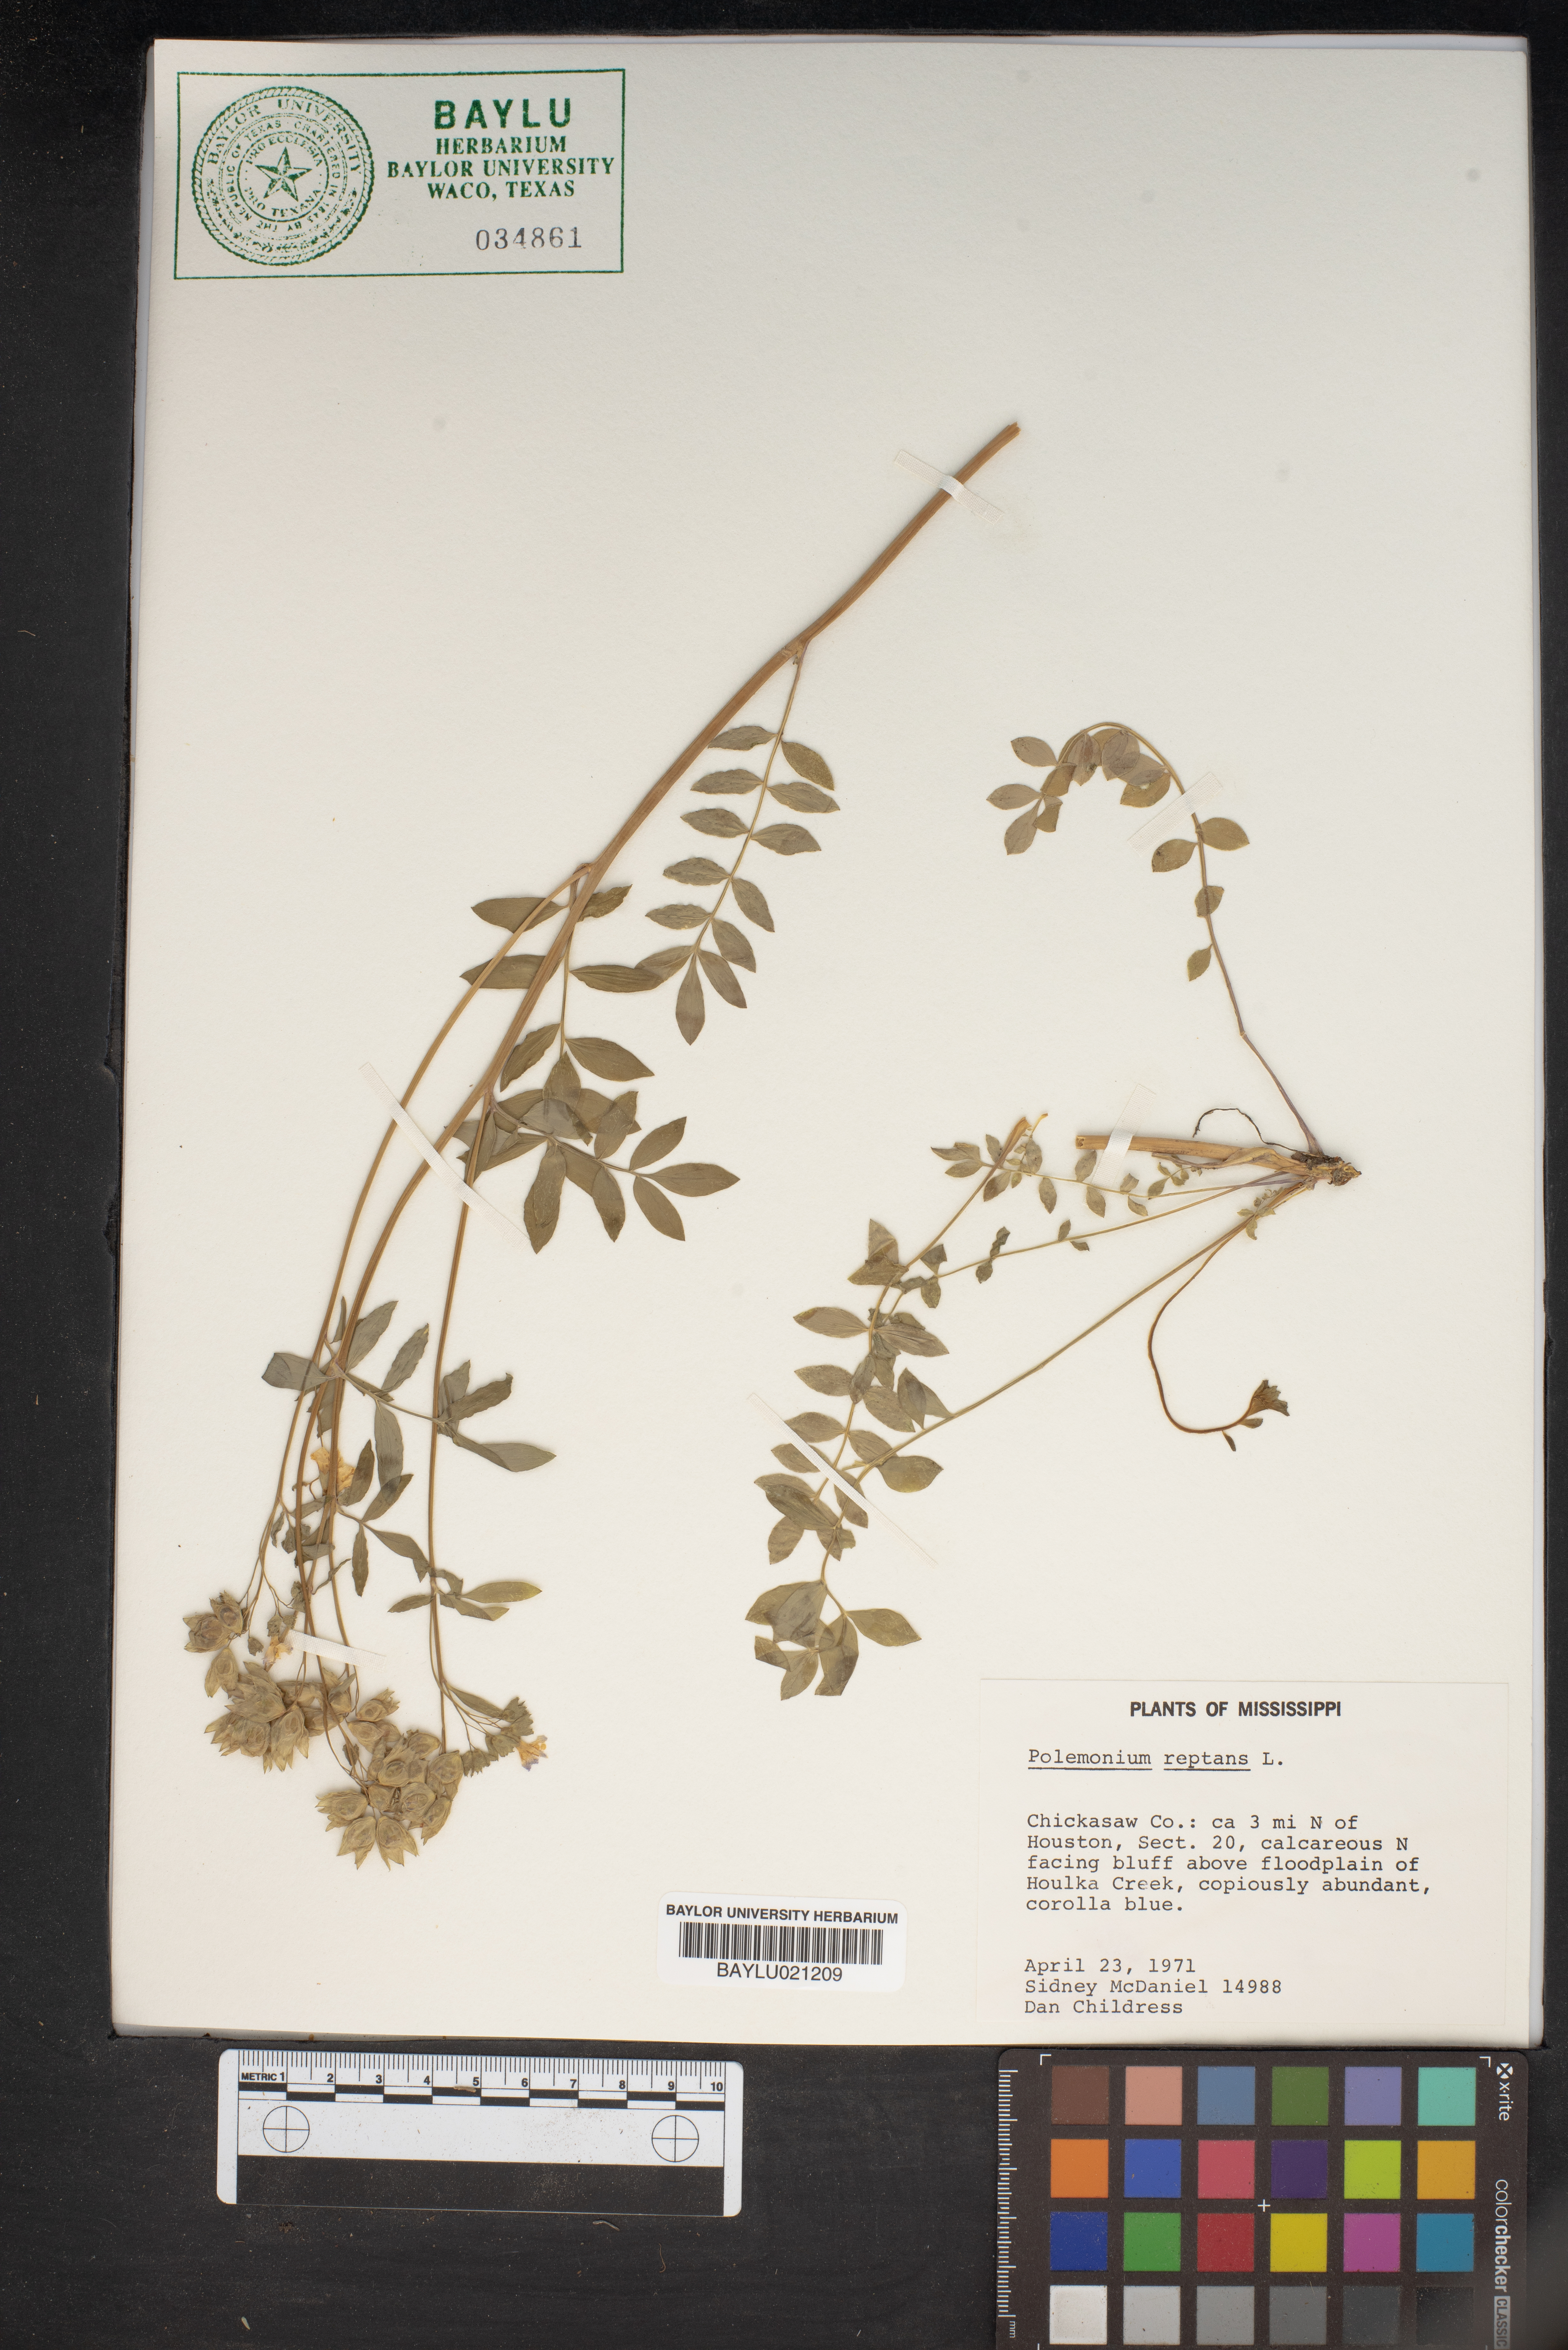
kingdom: Plantae
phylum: Tracheophyta
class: Magnoliopsida
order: Ericales
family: Polemoniaceae
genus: Polemonium
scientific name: Polemonium reptans
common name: Creeping jacob's-ladder
